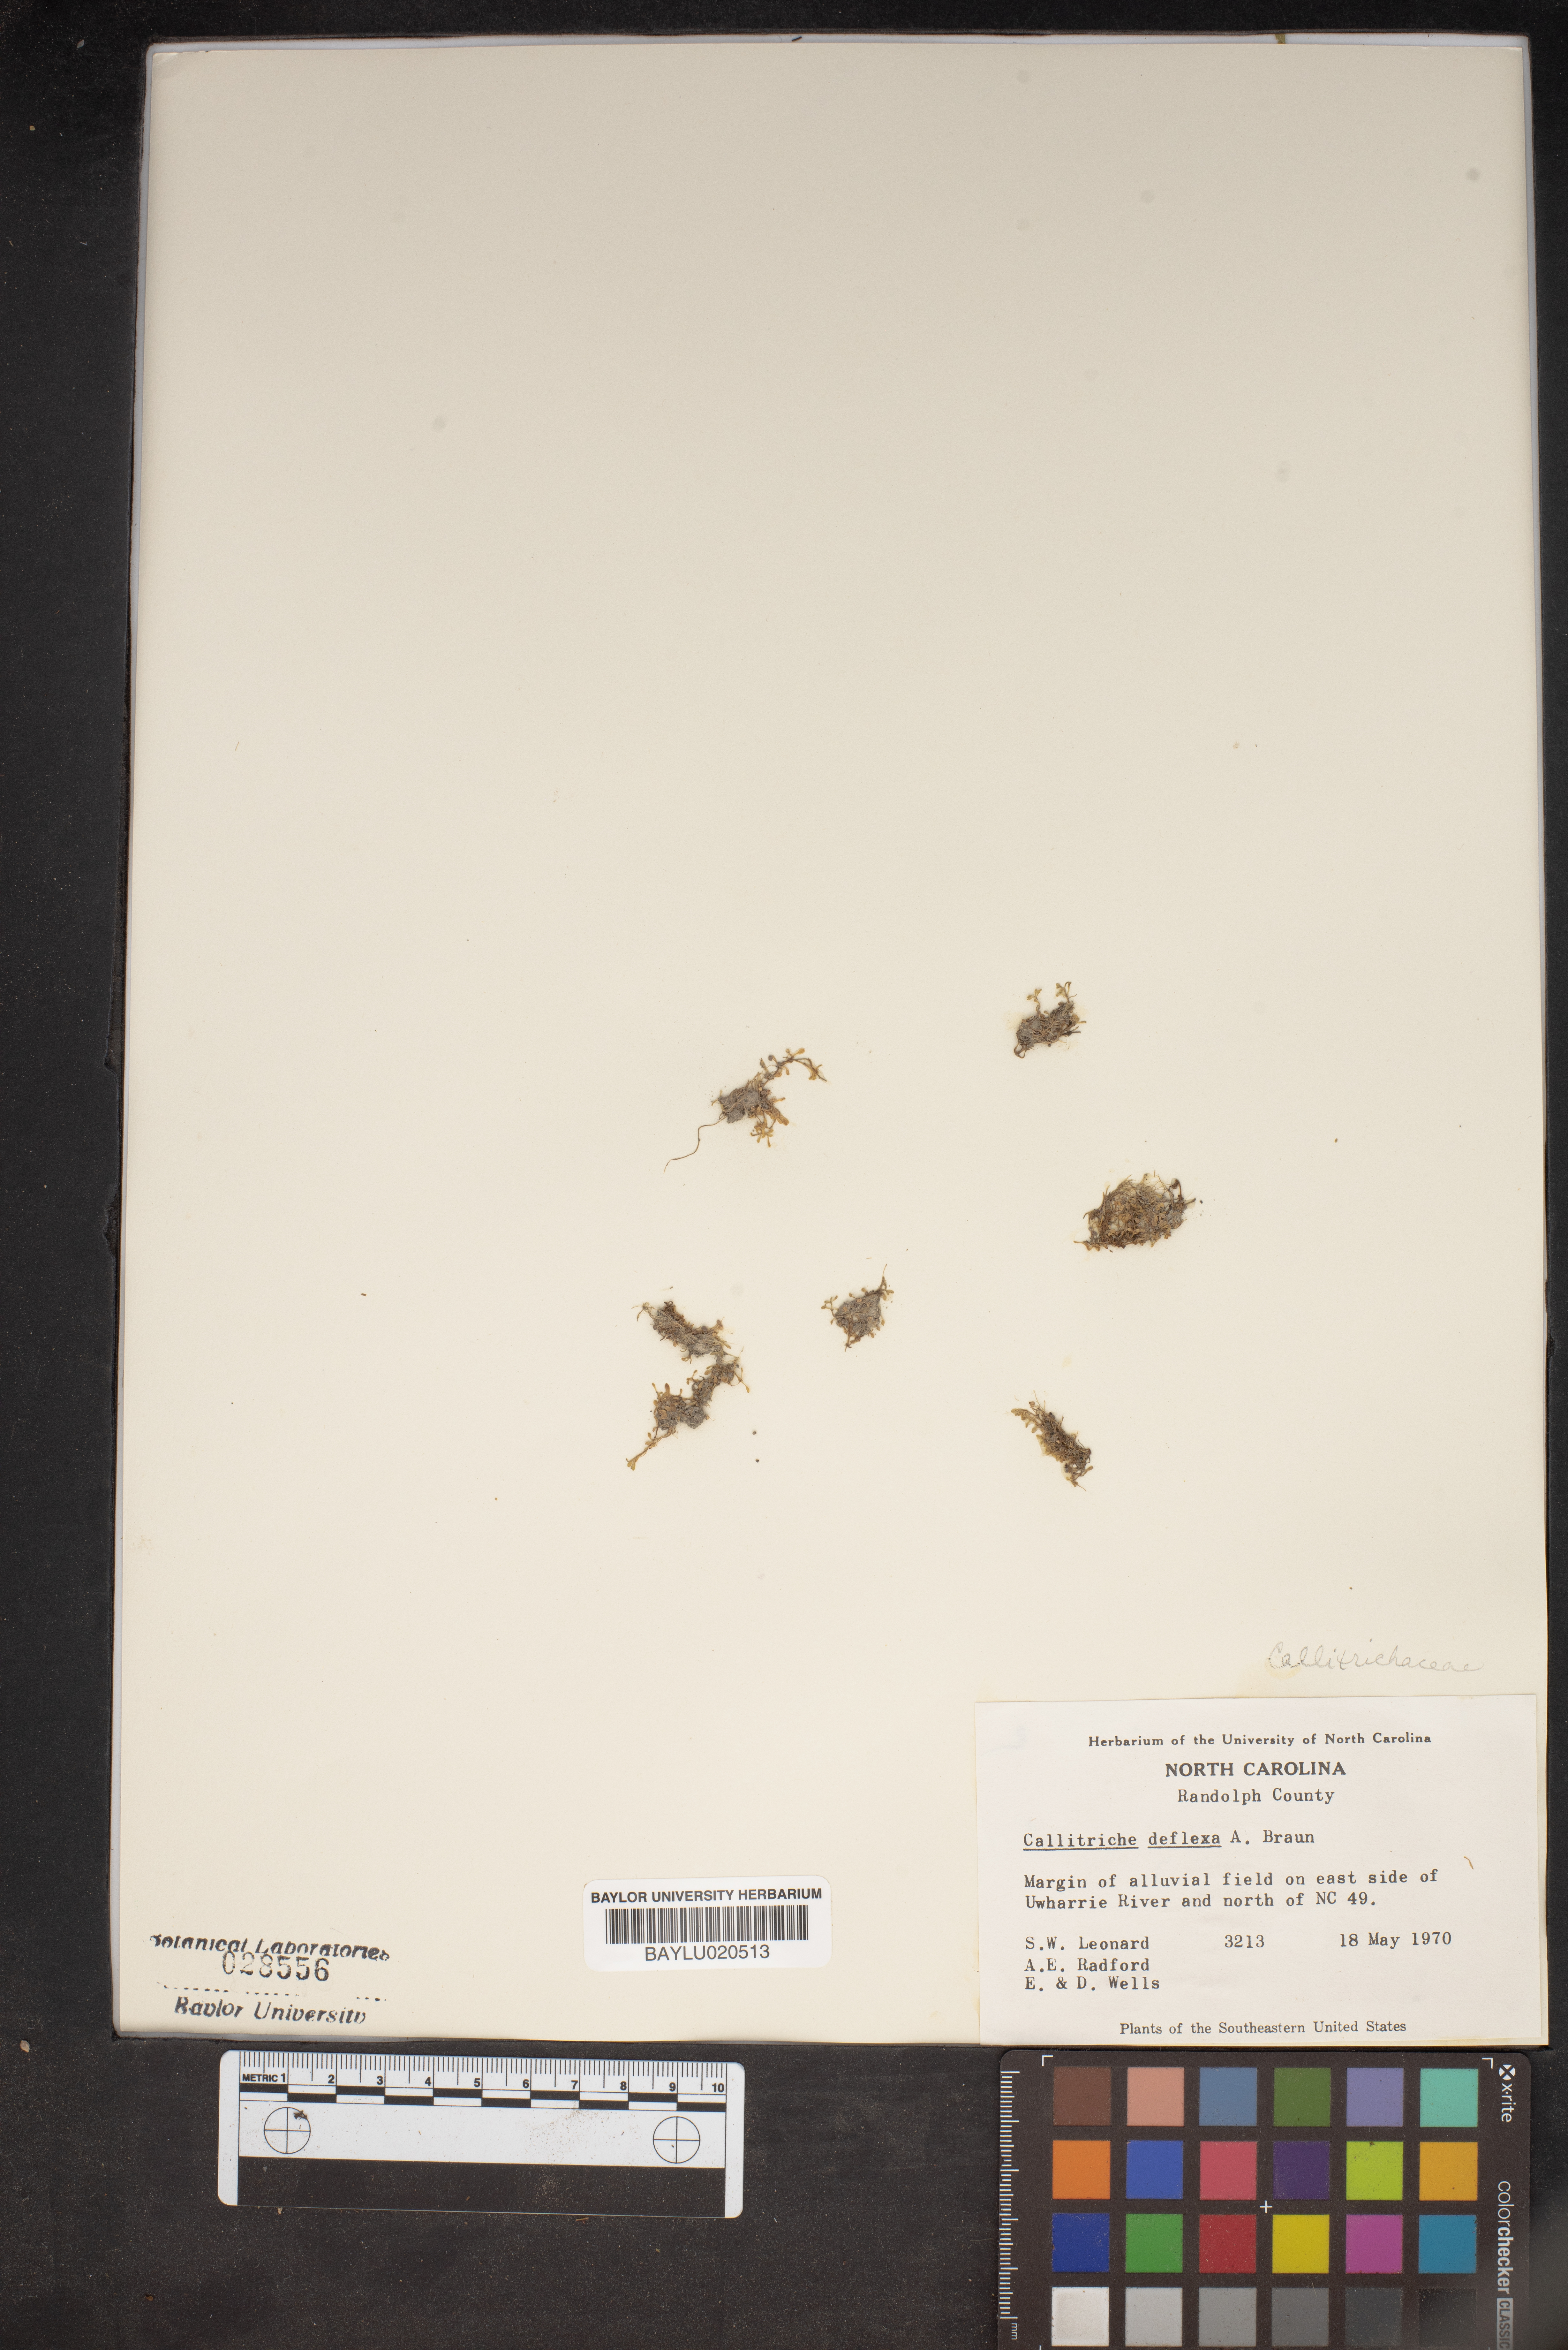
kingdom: Plantae
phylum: Tracheophyta
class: Magnoliopsida
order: Lamiales
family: Plantaginaceae
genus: Callitriche
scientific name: Callitriche deflexa
